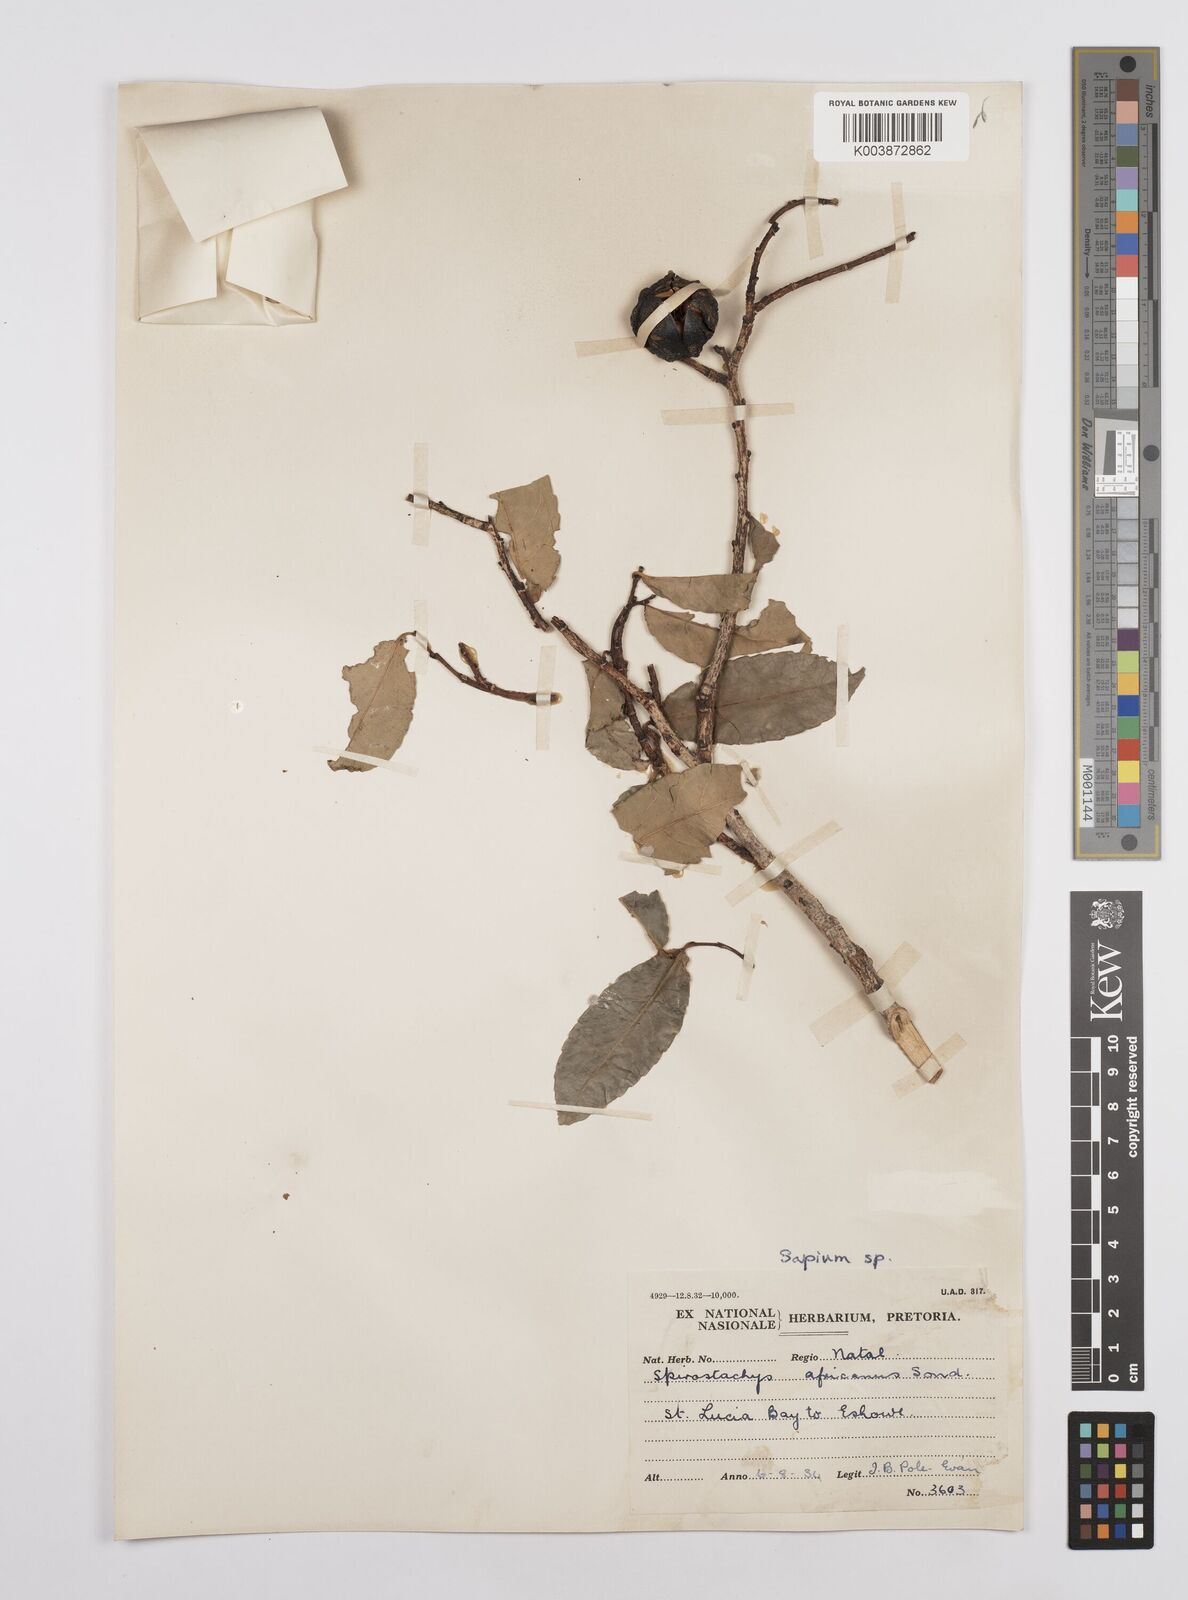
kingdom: Plantae
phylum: Tracheophyta
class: Magnoliopsida
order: Malpighiales
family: Euphorbiaceae
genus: Sclerocroton
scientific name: Sclerocroton integerrimus
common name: Duiker berry
